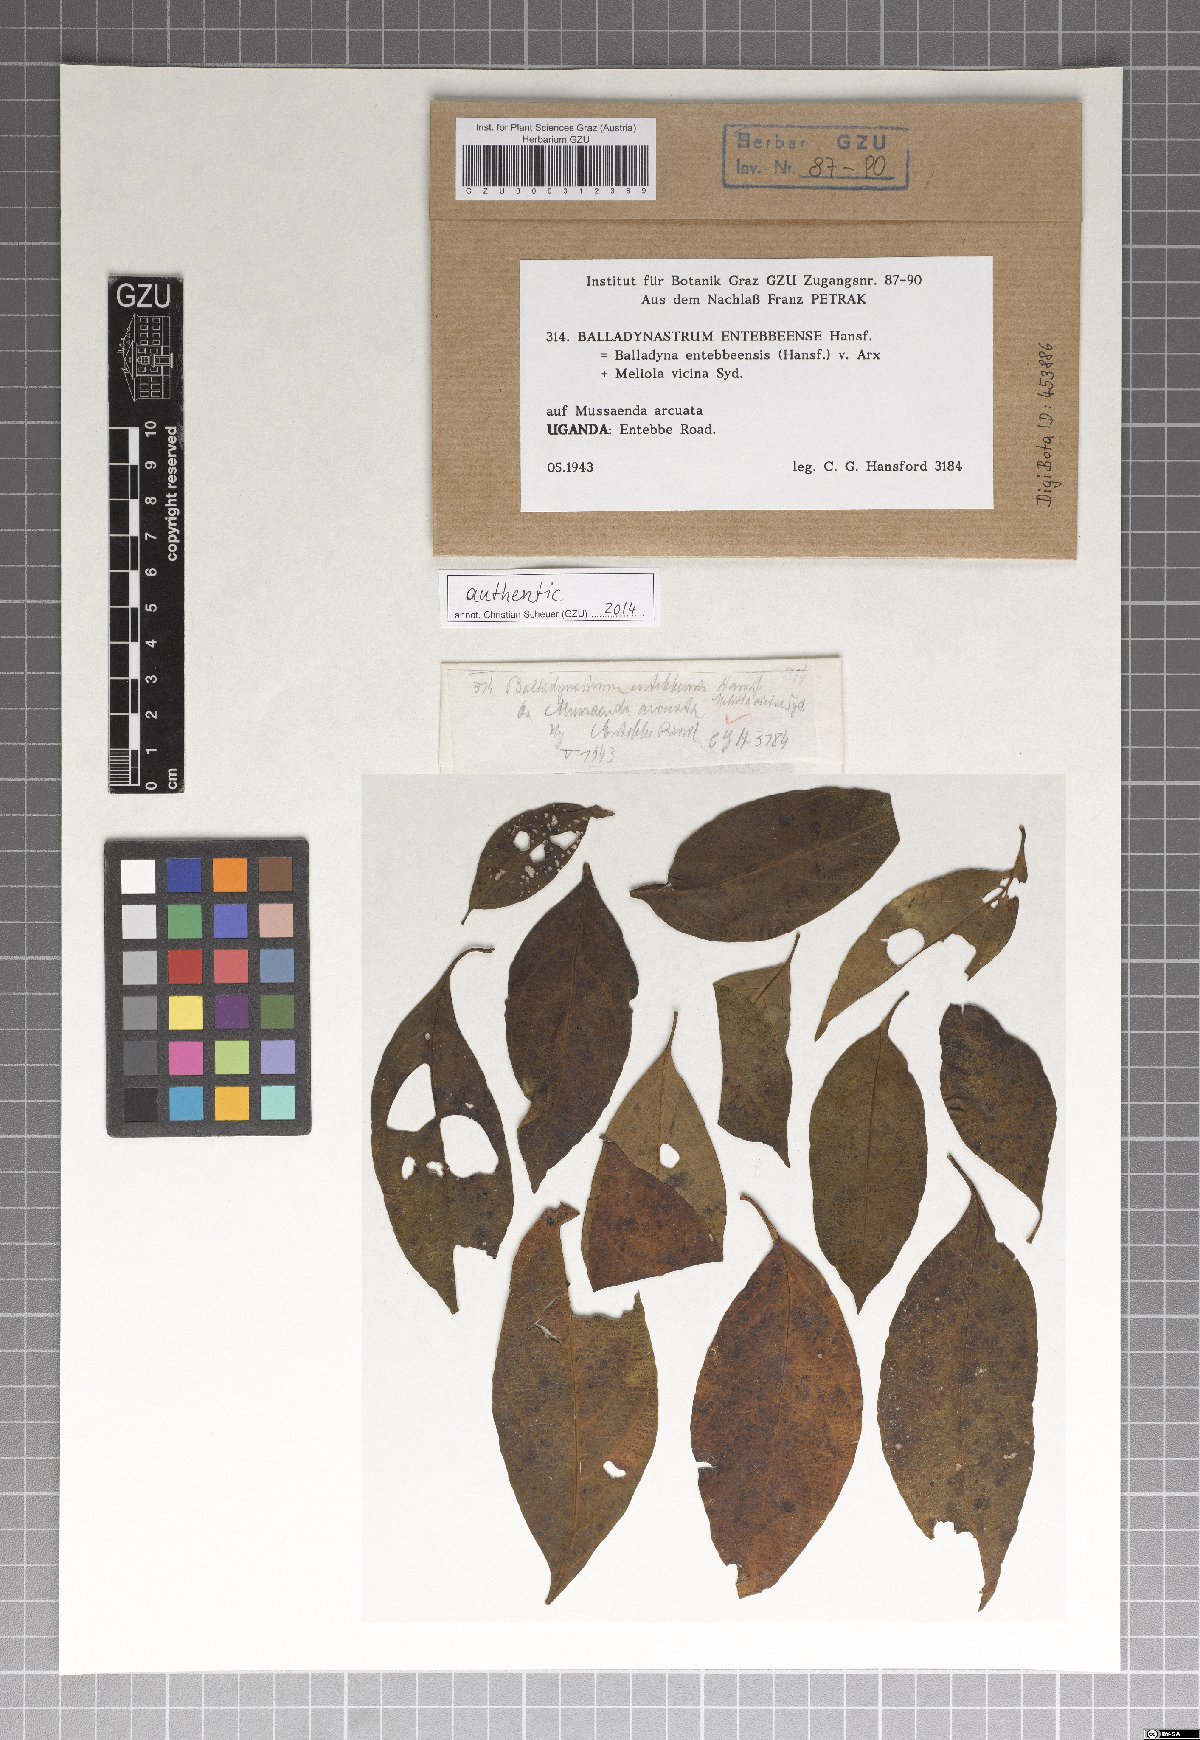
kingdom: Fungi
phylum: Ascomycota
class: Dothideomycetes
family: Balladynaceae
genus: Balladyna
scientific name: Balladyna entebbeensis
